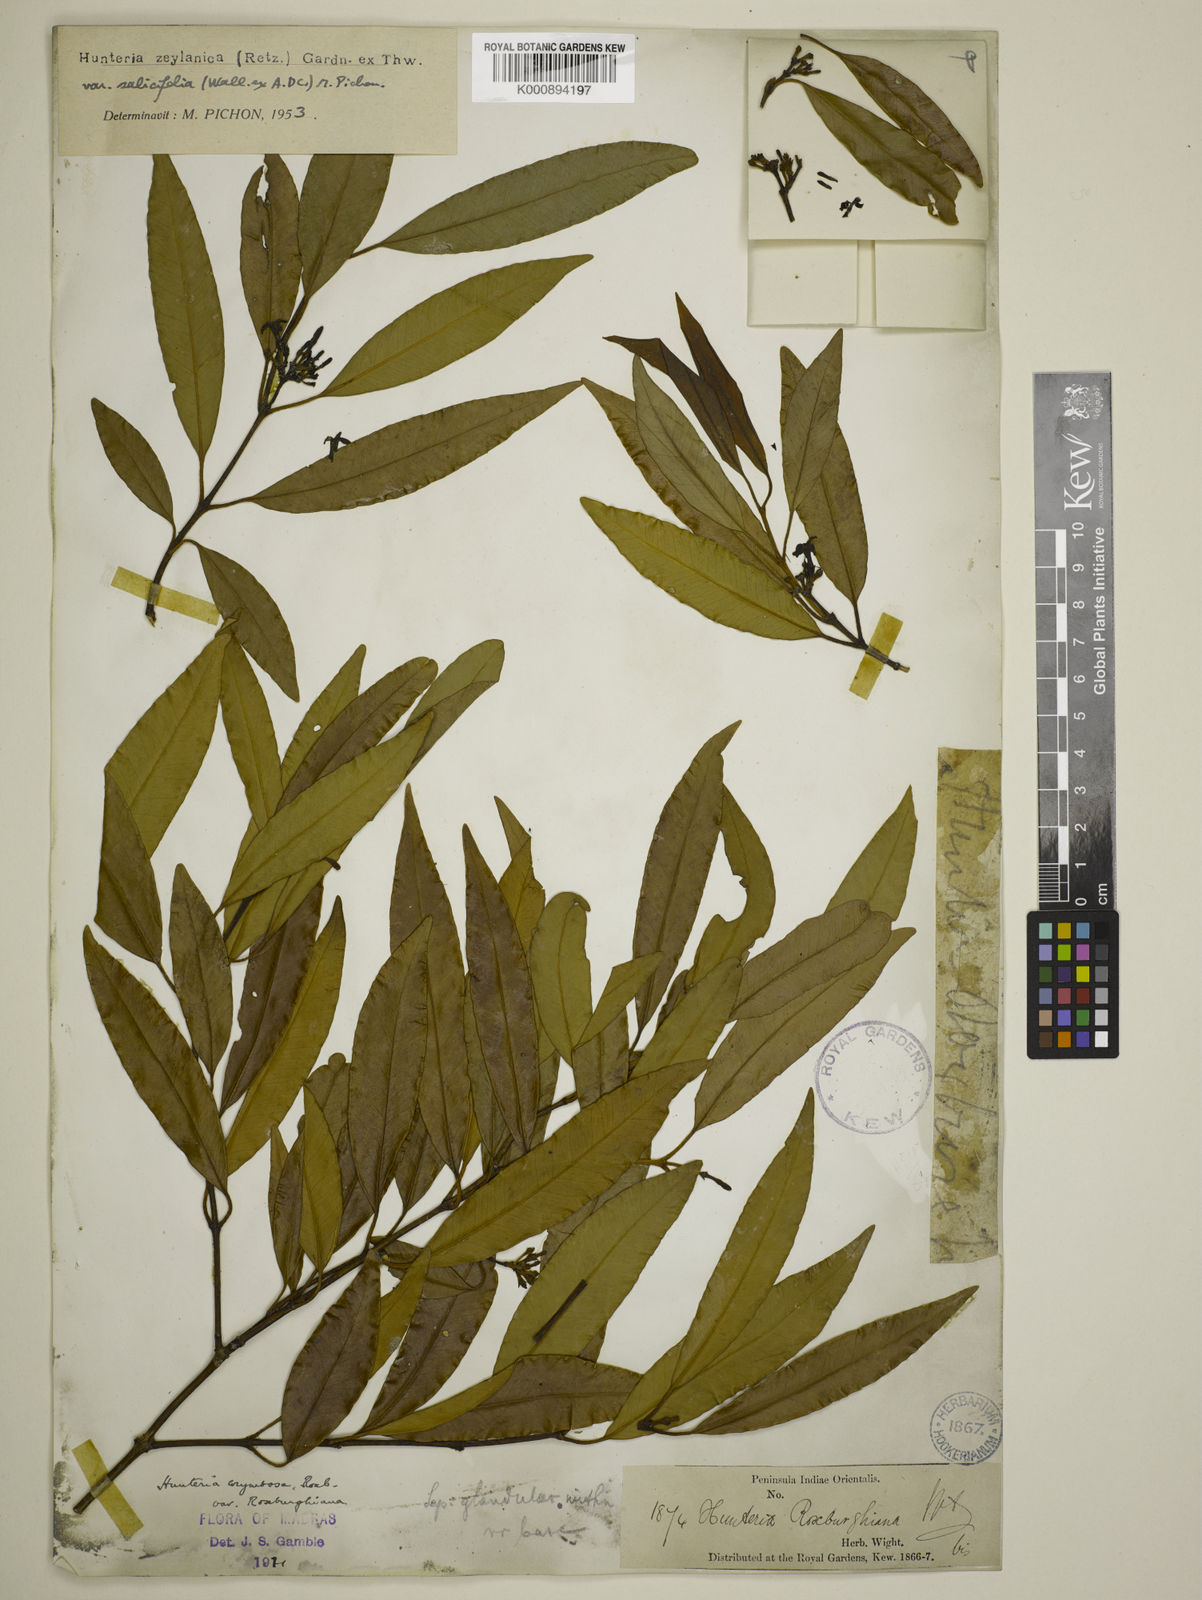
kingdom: Plantae
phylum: Tracheophyta
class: Magnoliopsida
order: Gentianales
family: Apocynaceae
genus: Hunteria
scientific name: Hunteria zeylanica
